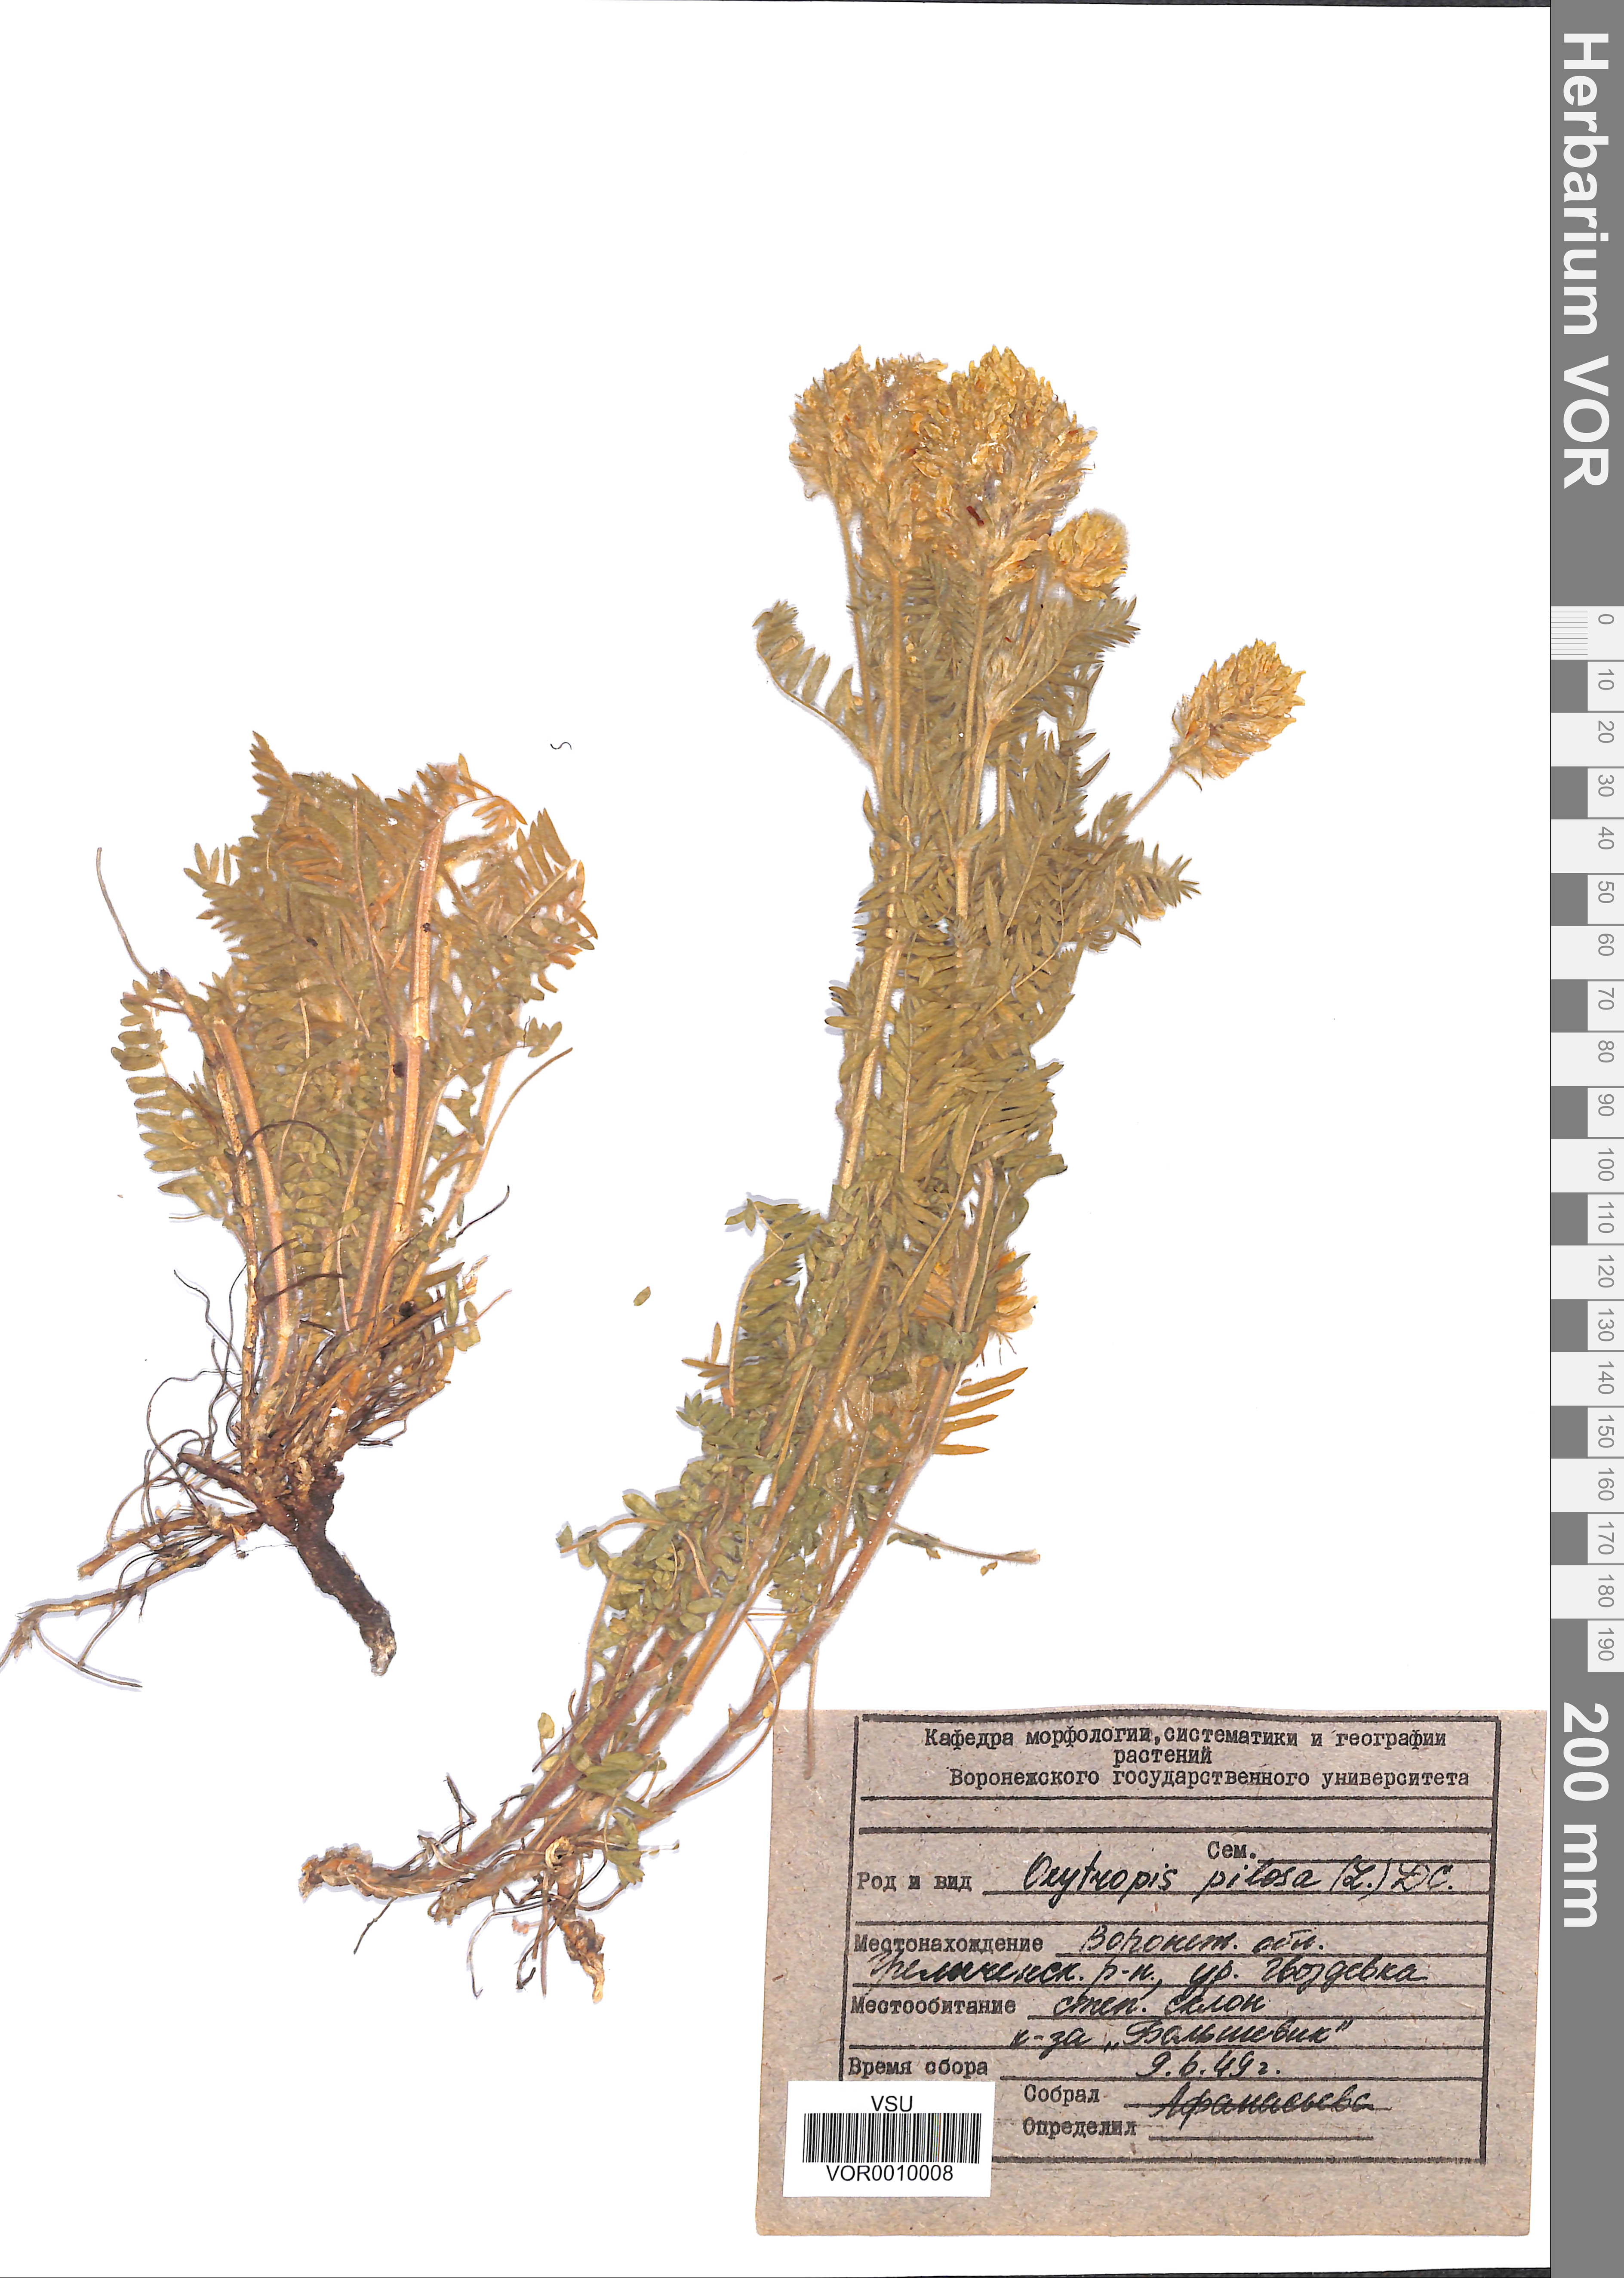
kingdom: Plantae
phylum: Tracheophyta
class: Magnoliopsida
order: Fabales
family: Fabaceae
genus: Oxytropis
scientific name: Oxytropis pilosa
